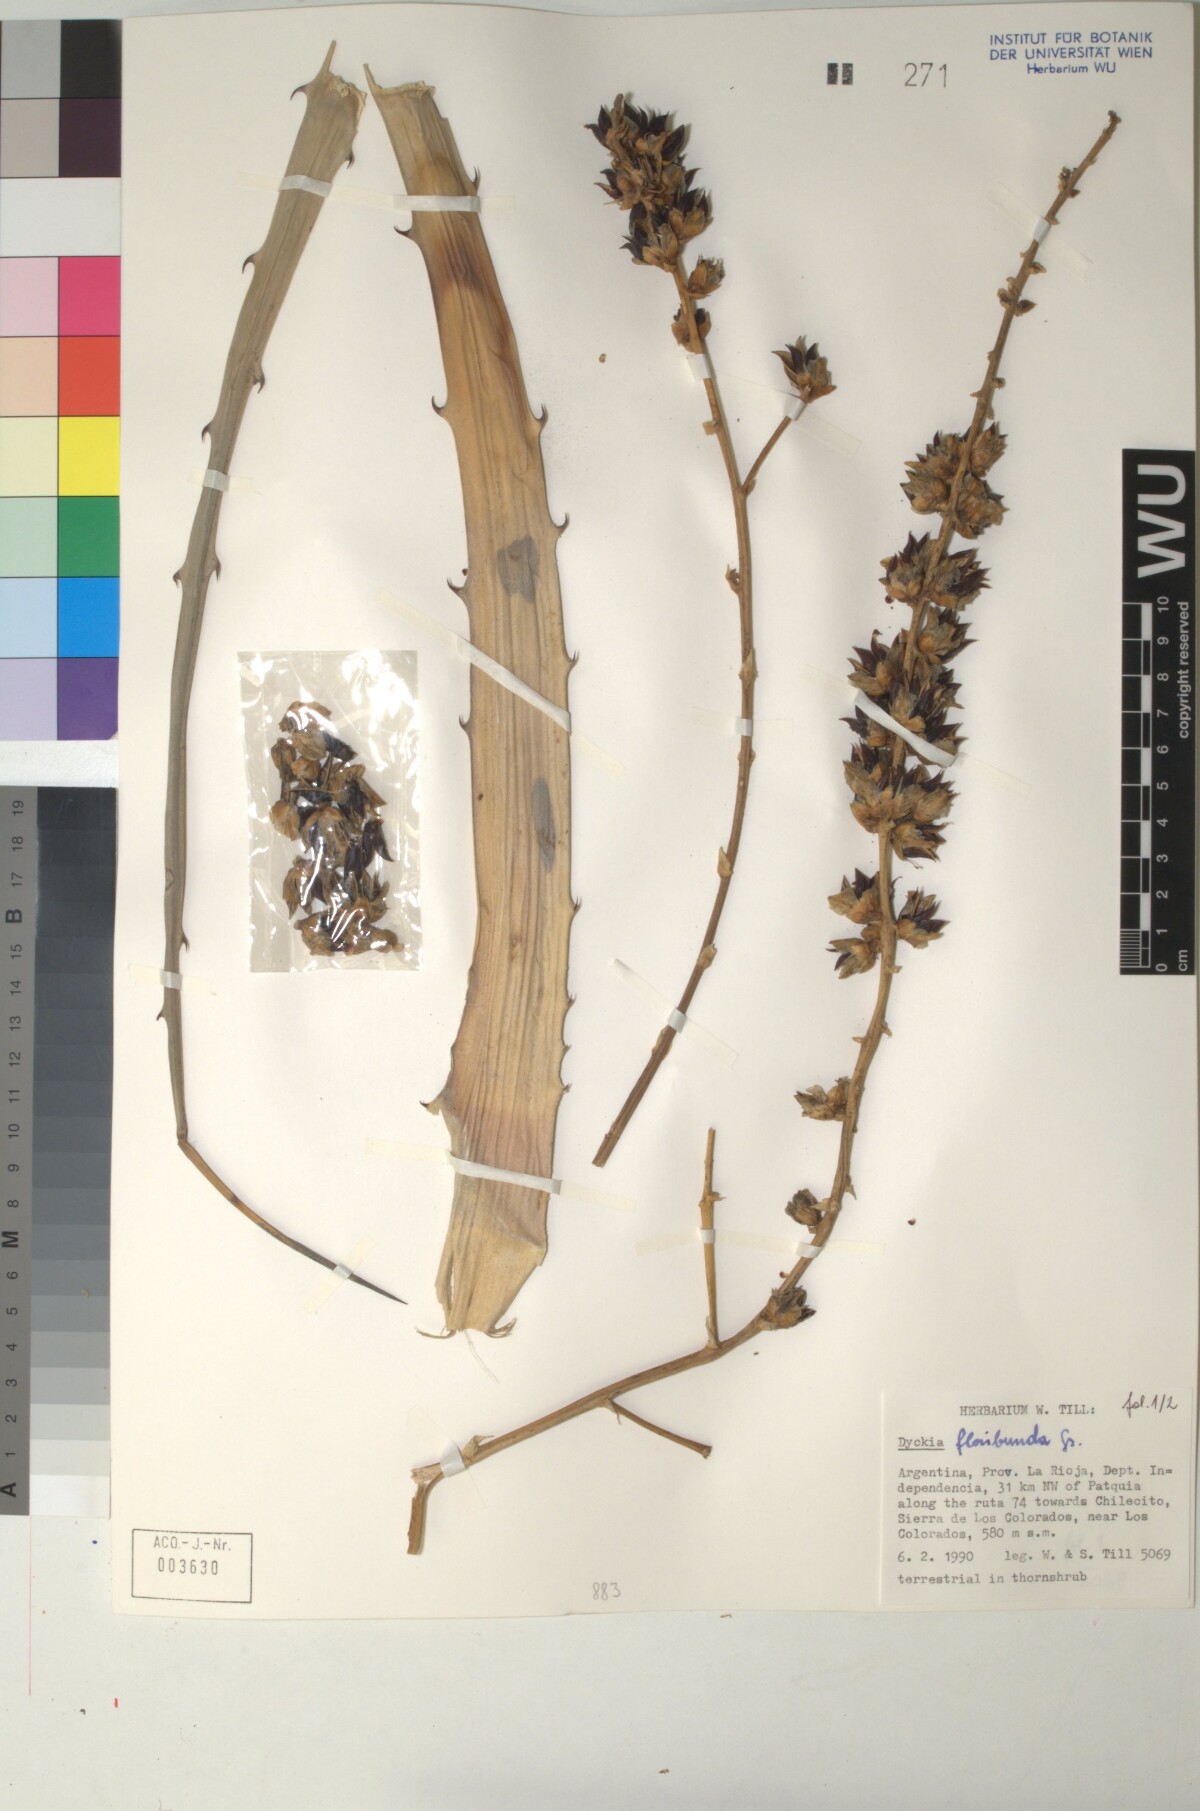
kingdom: Plantae
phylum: Tracheophyta
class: Liliopsida
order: Poales
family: Bromeliaceae
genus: Dyckia
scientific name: Dyckia floribunda
